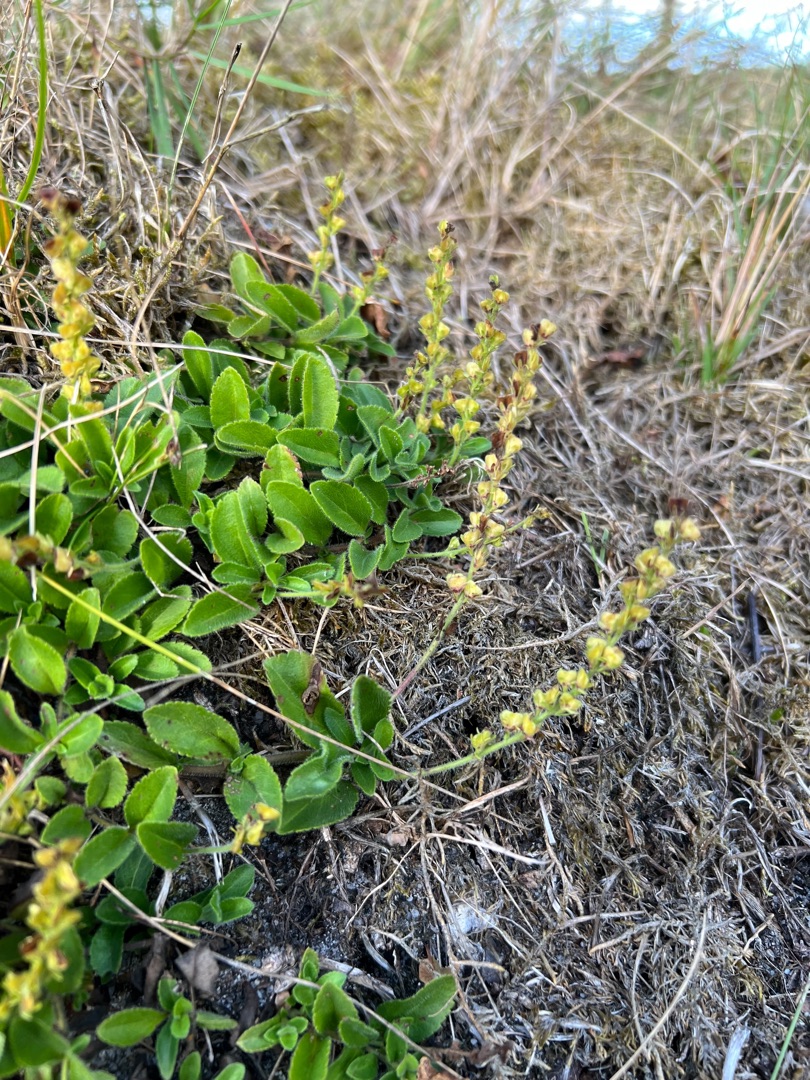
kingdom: Plantae
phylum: Tracheophyta
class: Magnoliopsida
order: Lamiales
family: Plantaginaceae
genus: Veronica
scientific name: Veronica officinalis
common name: Læge-ærenpris
